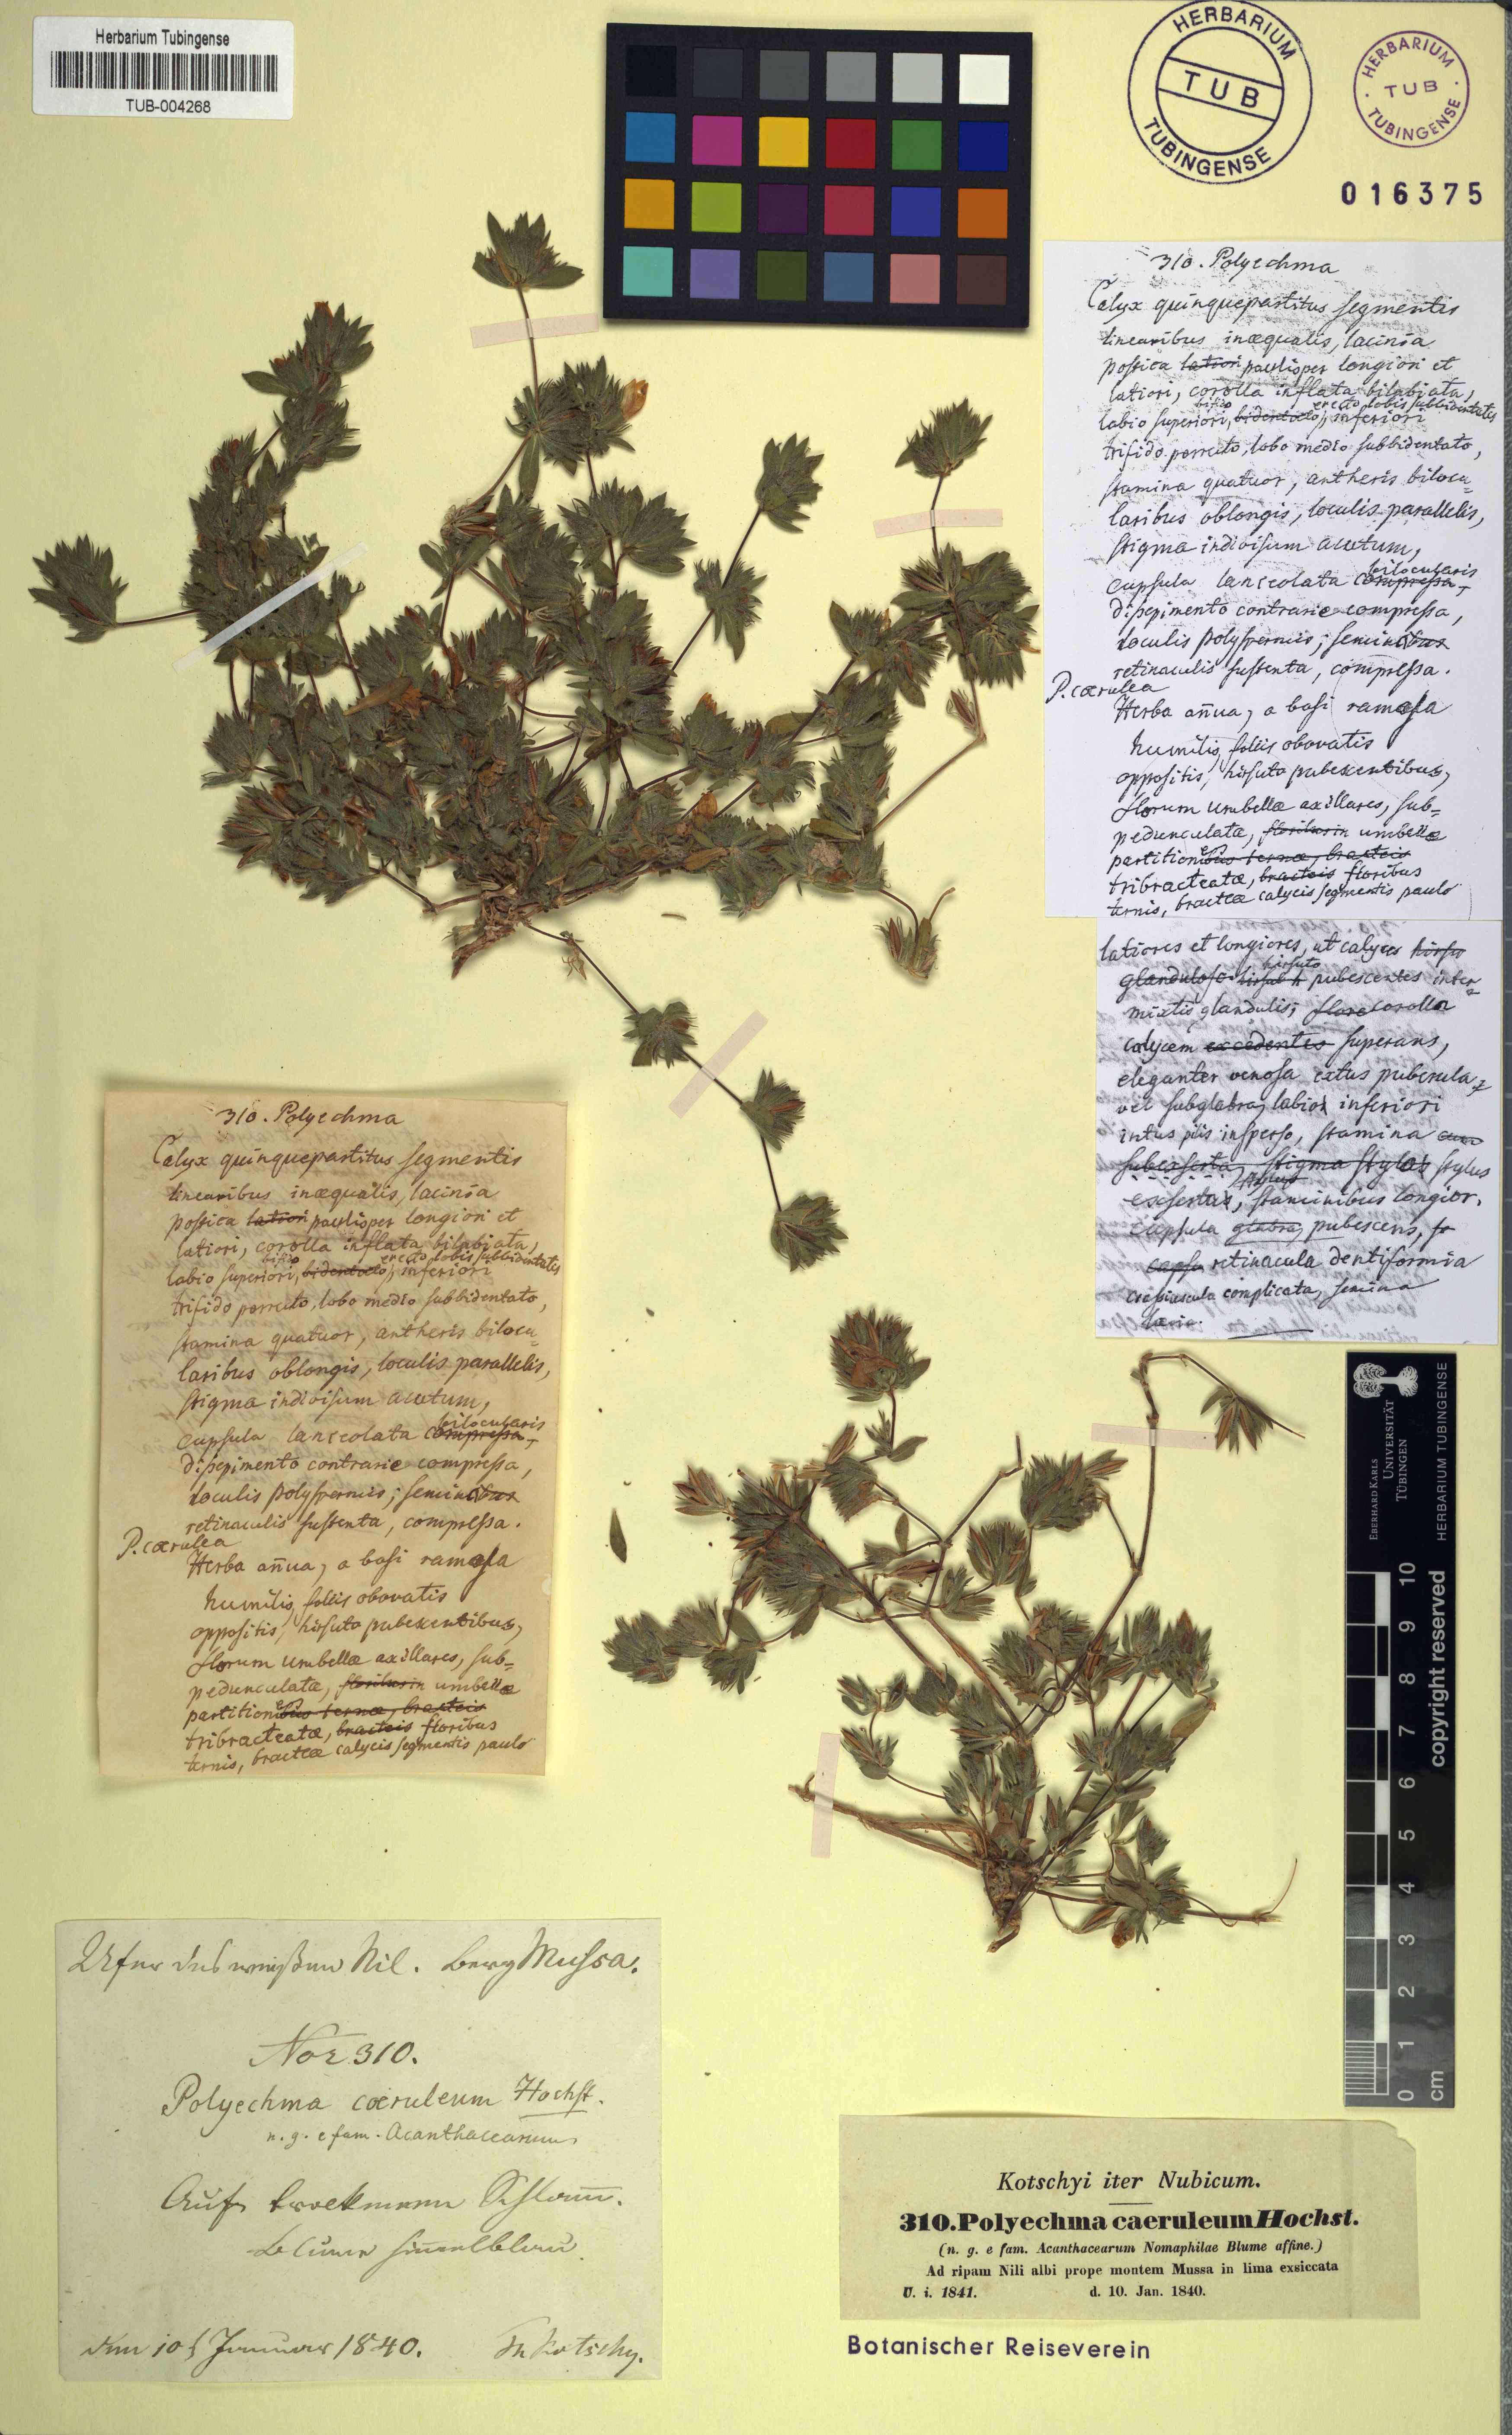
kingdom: Plantae
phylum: Tracheophyta
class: Magnoliopsida
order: Lamiales
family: Acanthaceae
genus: Hygrophila
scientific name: Hygrophila caerulea
